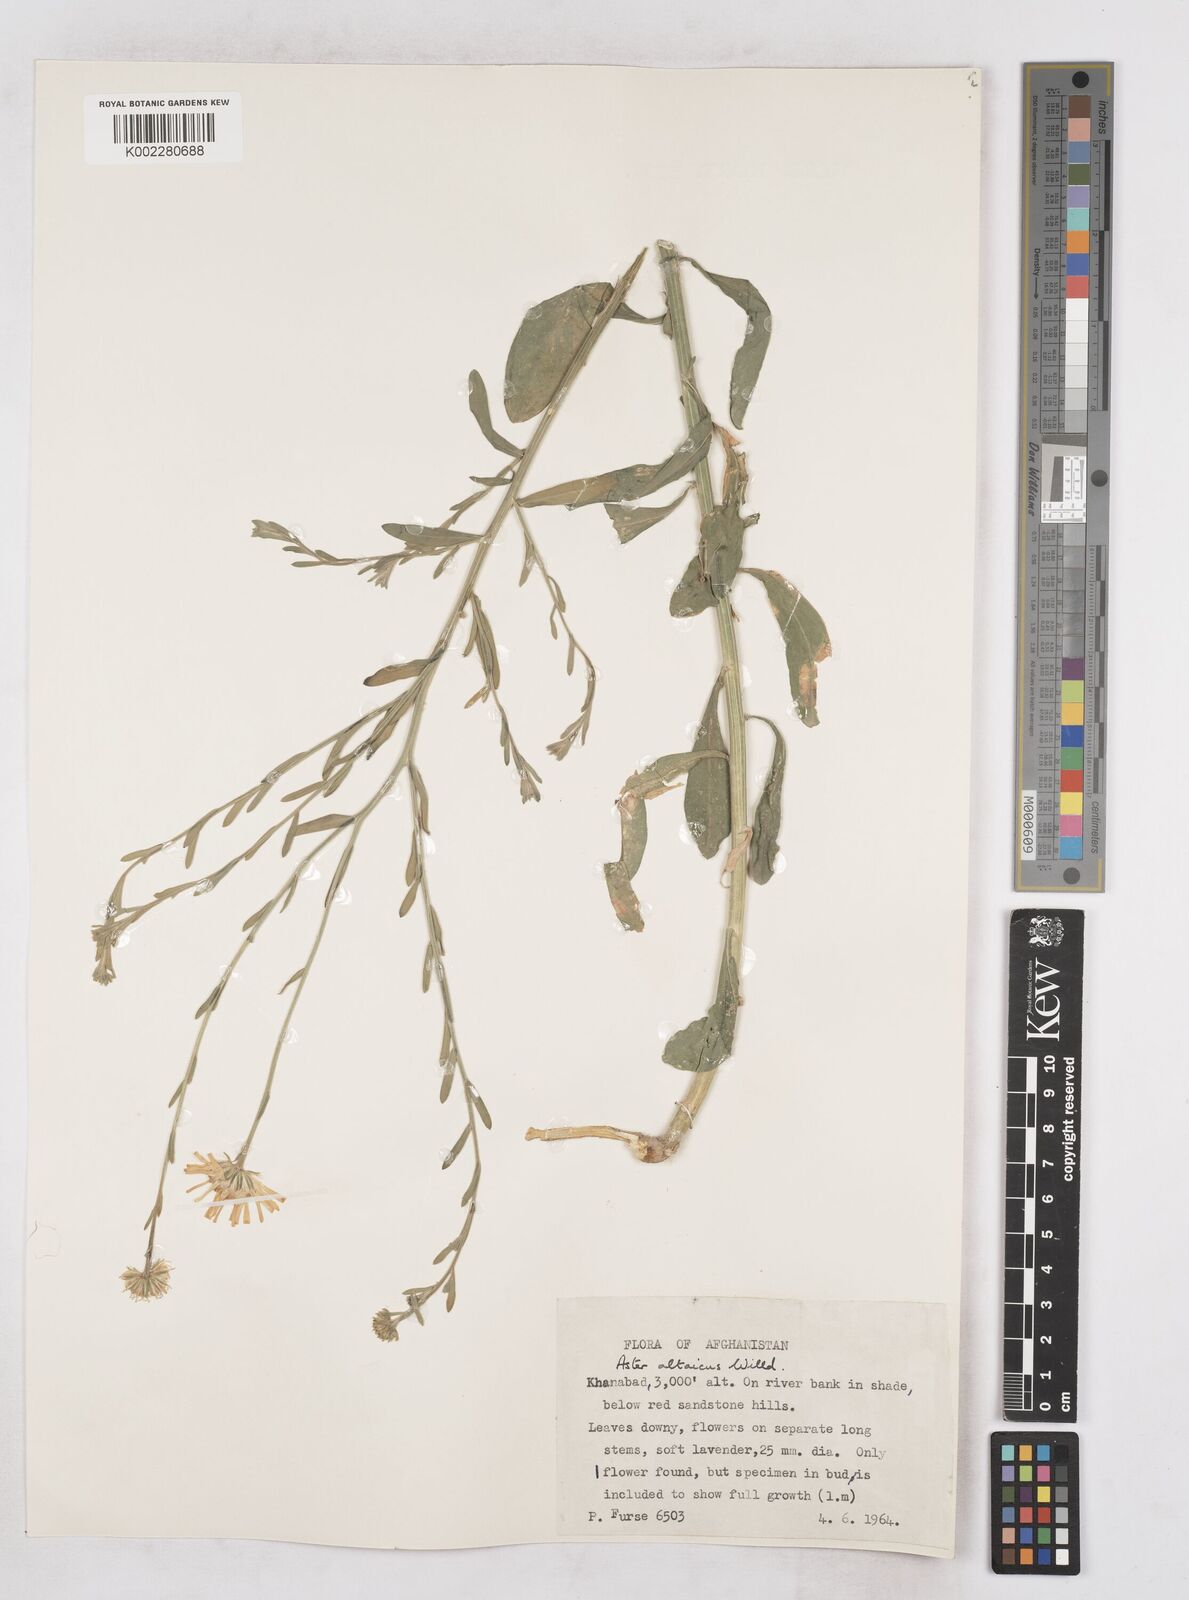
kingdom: Plantae
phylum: Tracheophyta
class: Magnoliopsida
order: Asterales
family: Asteraceae
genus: Heteropappus
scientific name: Heteropappus altaicus
